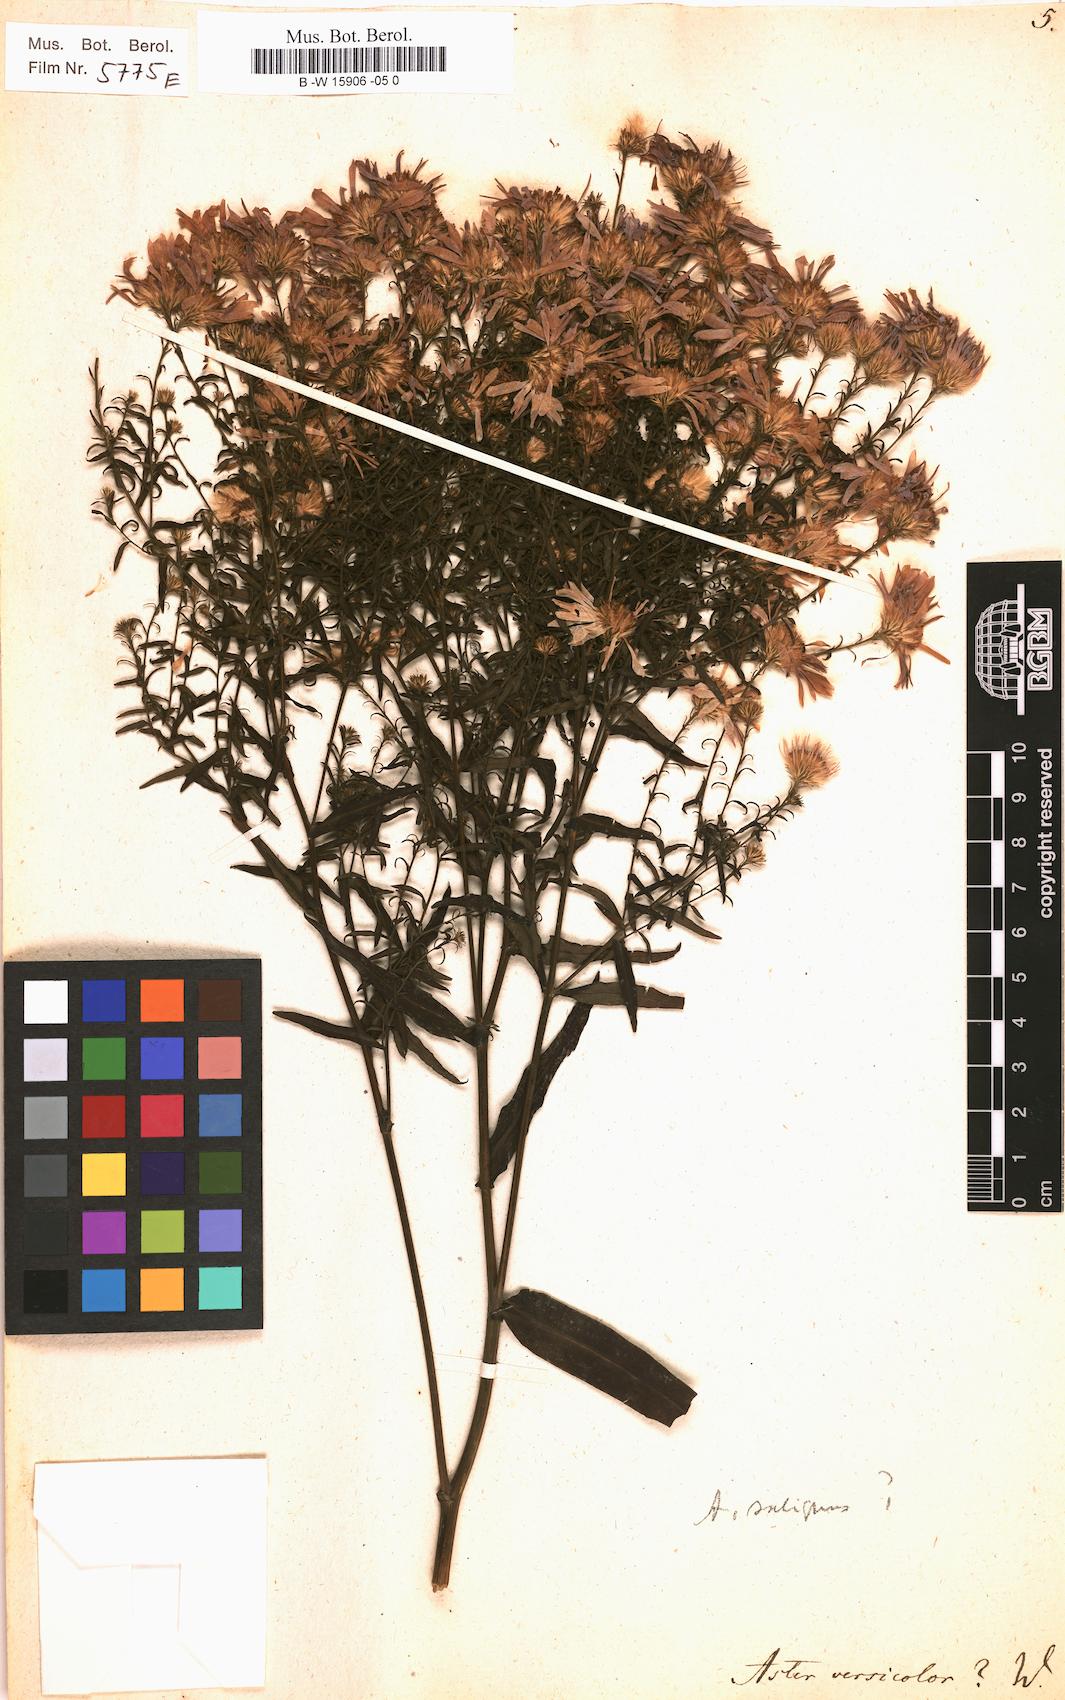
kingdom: Plantae
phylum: Tracheophyta
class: Magnoliopsida
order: Asterales
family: Asteraceae
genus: Aster
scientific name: Aster versicolor
